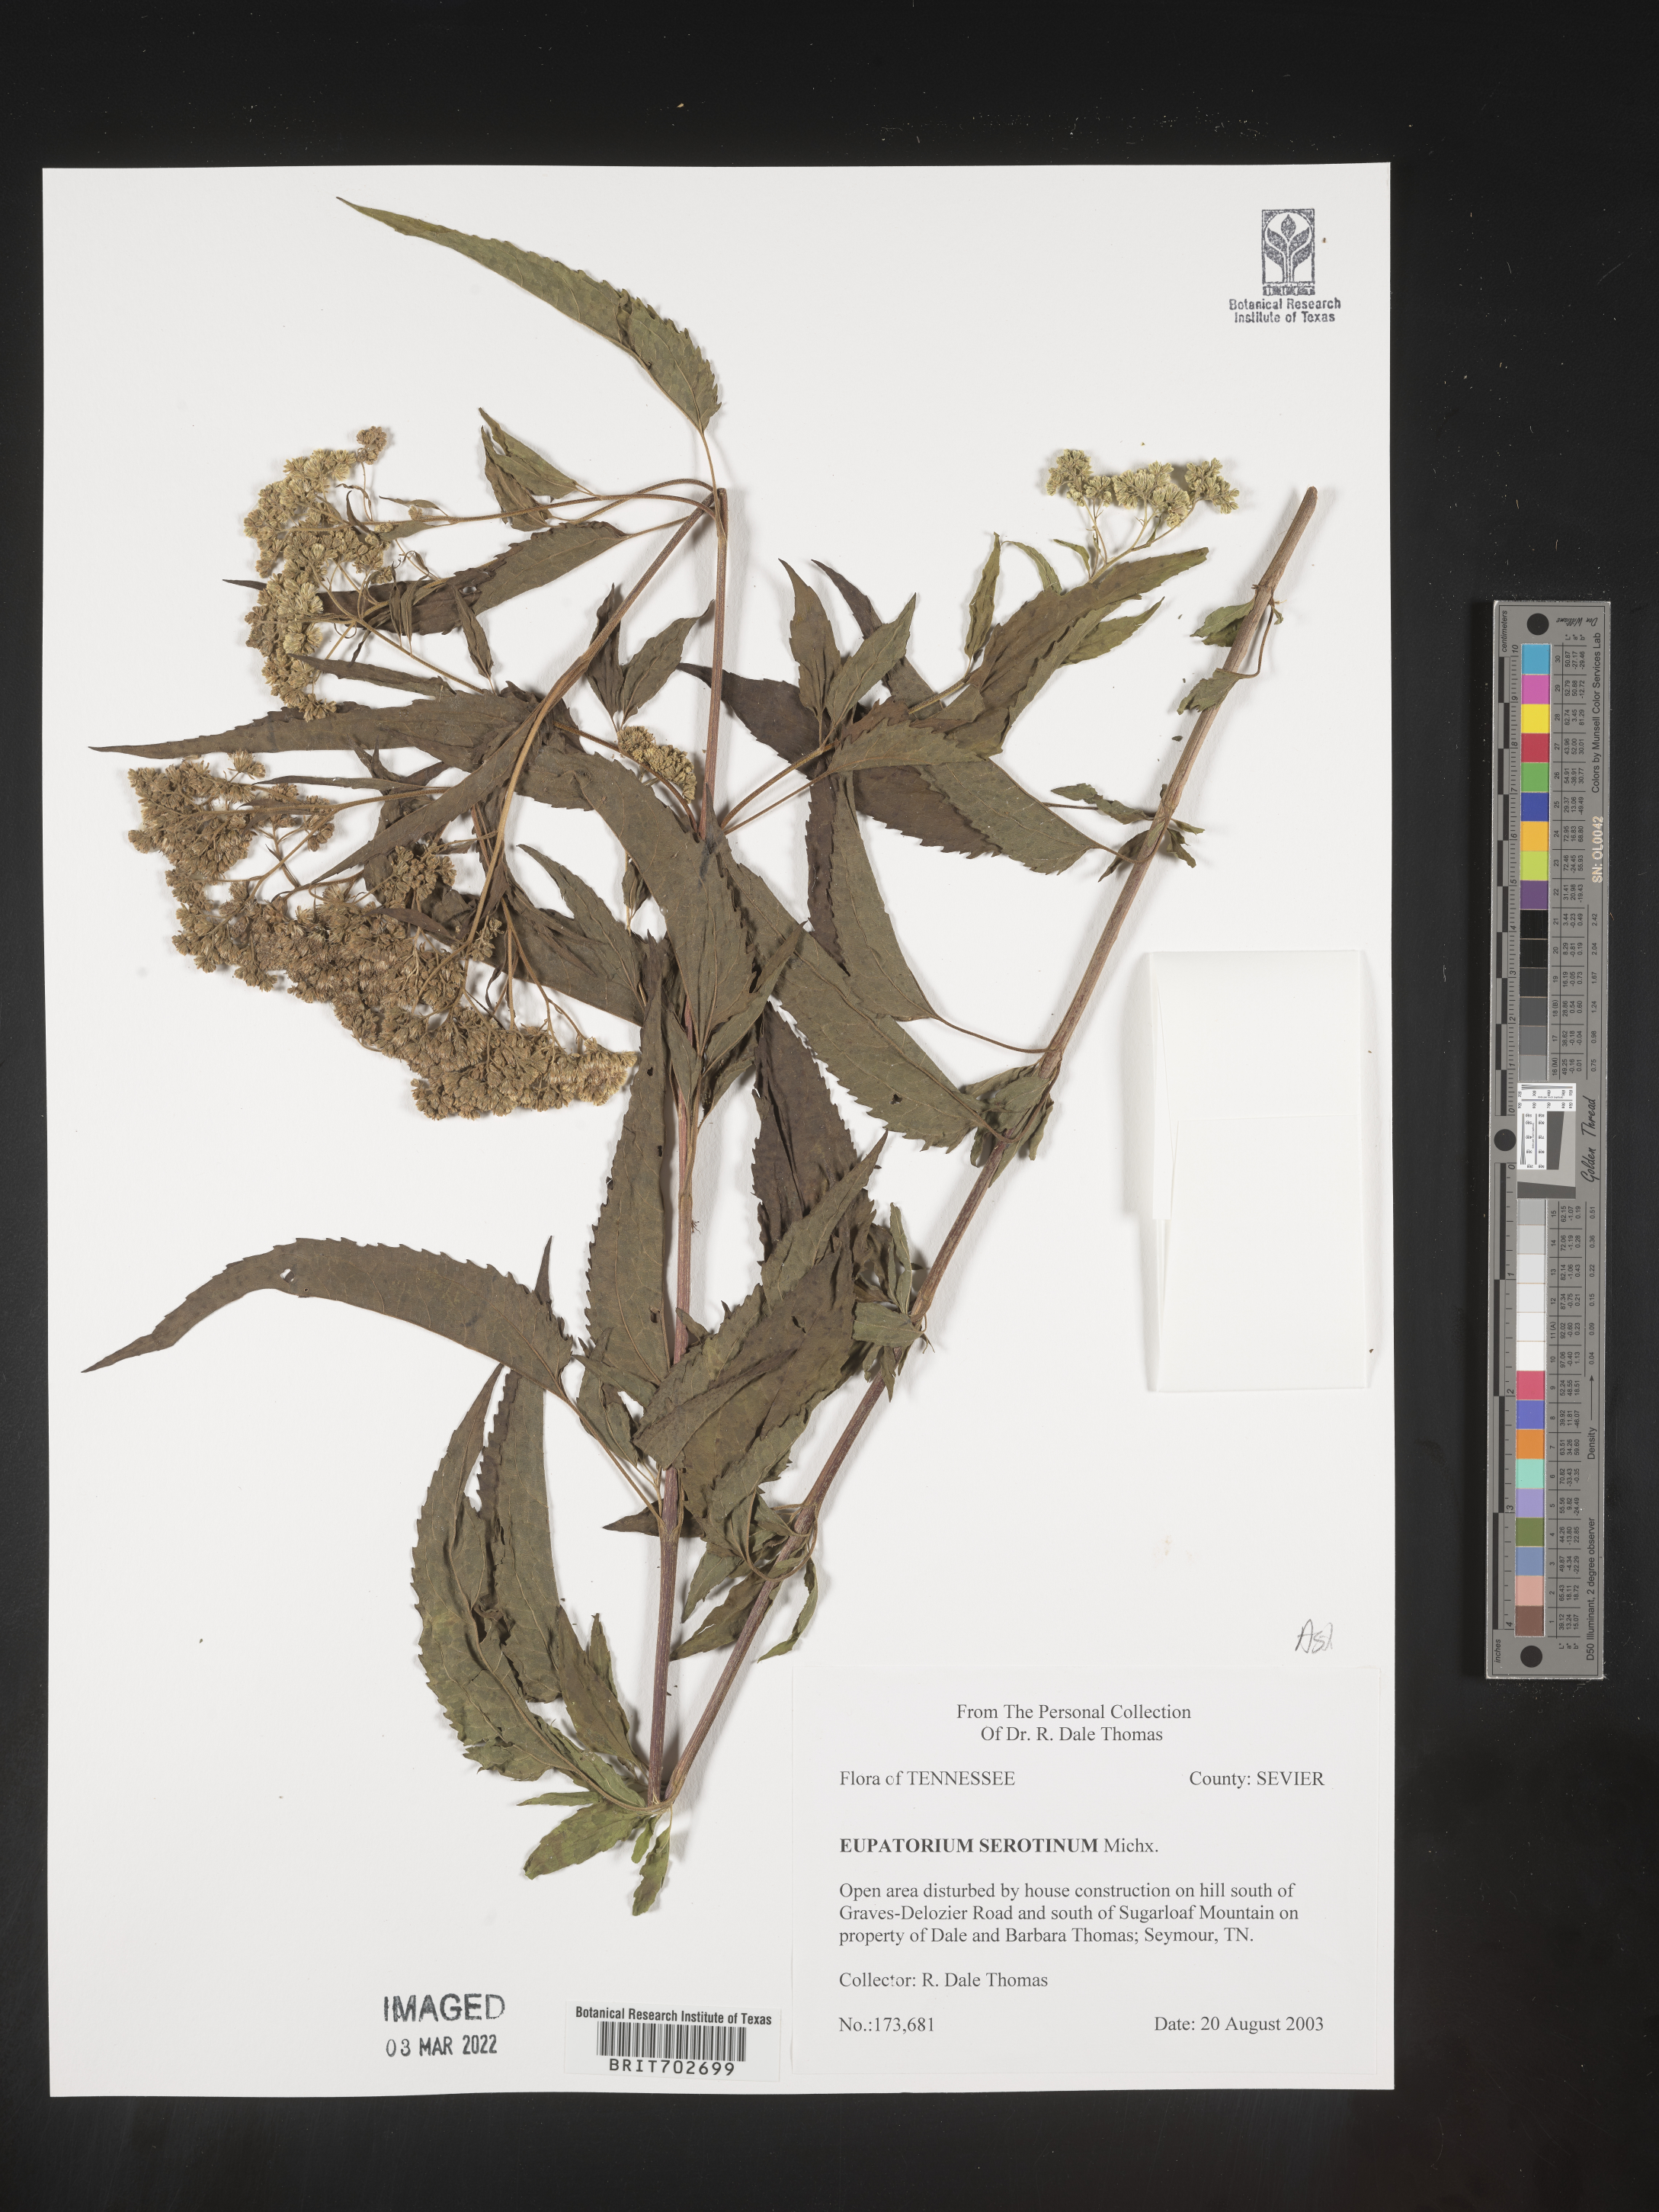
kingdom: Plantae
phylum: Tracheophyta
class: Magnoliopsida
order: Asterales
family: Asteraceae
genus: Eupatorium
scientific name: Eupatorium serotinum
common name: Late boneset
